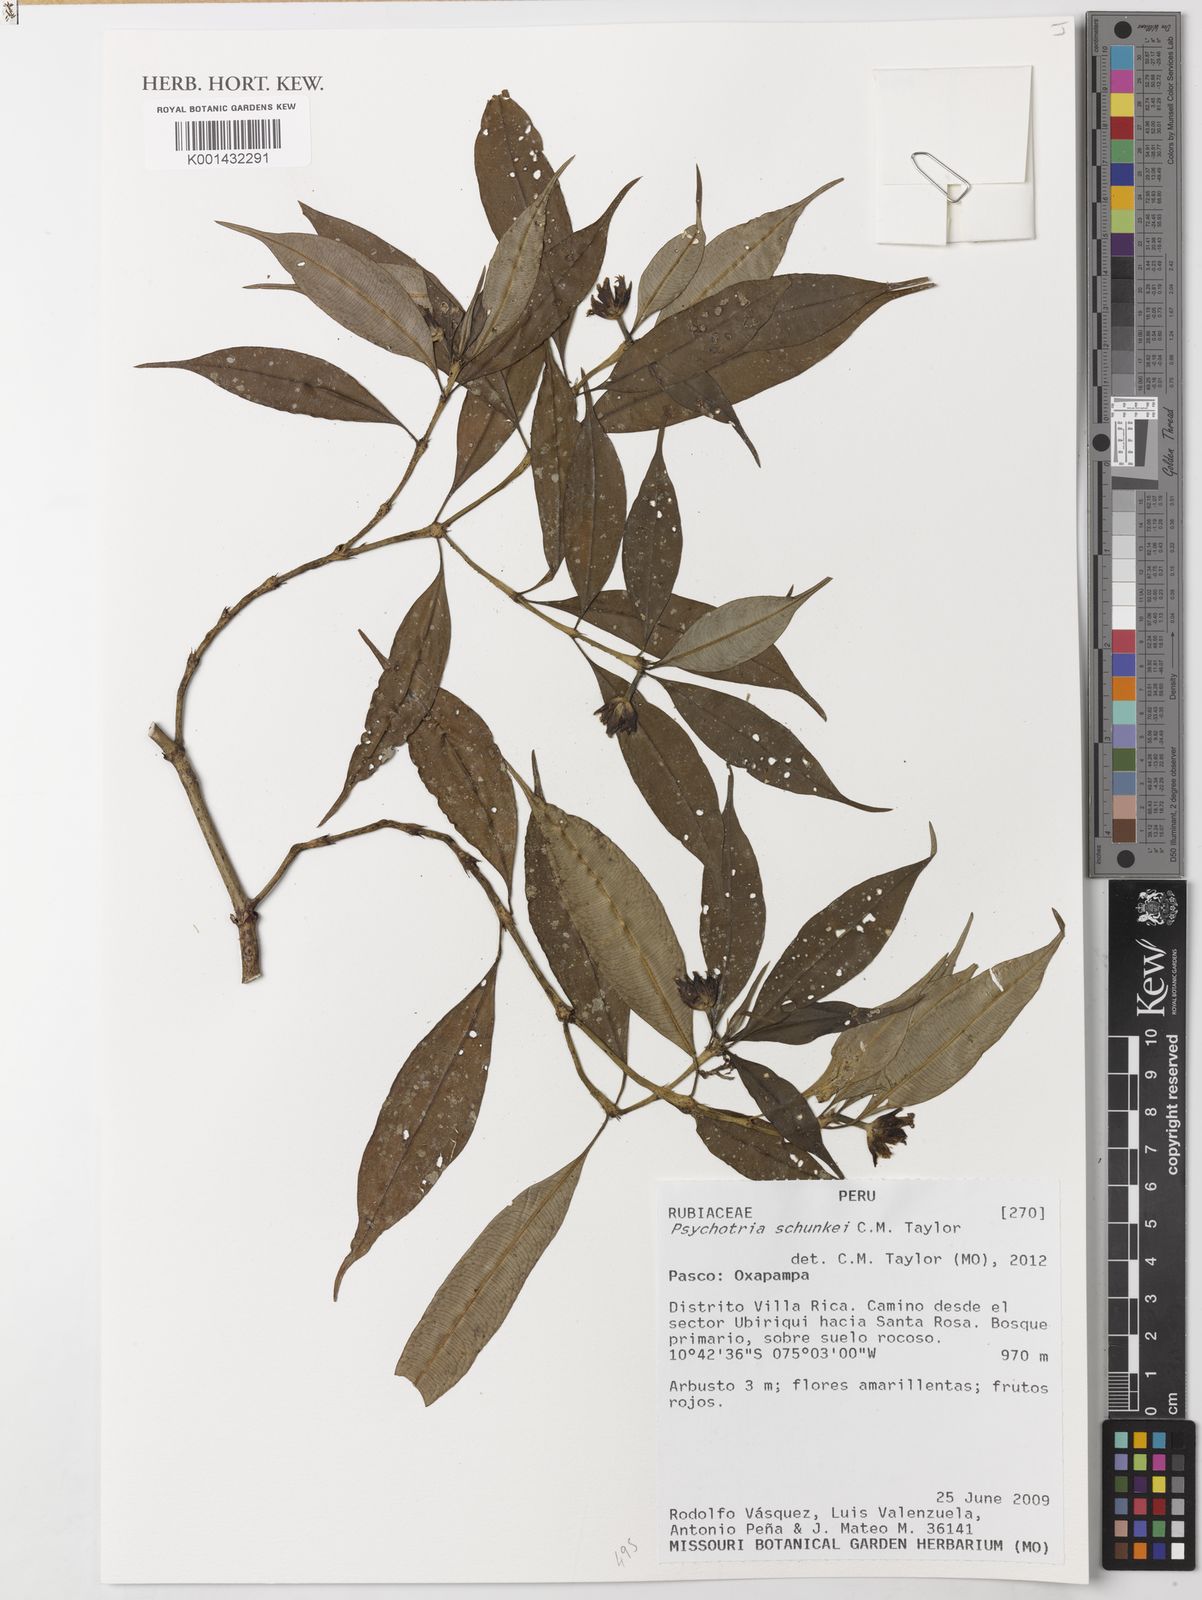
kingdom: Plantae
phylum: Tracheophyta
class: Magnoliopsida
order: Gentianales
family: Rubiaceae
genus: Palicourea
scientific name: Palicourea schunkei
